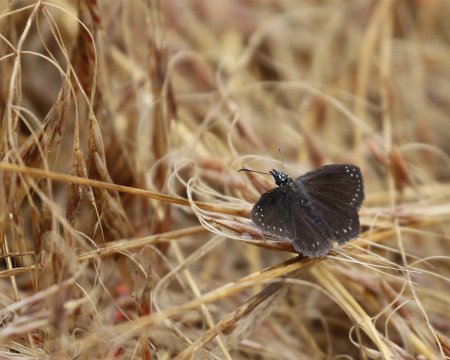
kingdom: Animalia
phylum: Arthropoda
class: Insecta
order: Lepidoptera
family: Hesperiidae
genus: Pholisora
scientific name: Pholisora catullus
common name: Common Sootywing
